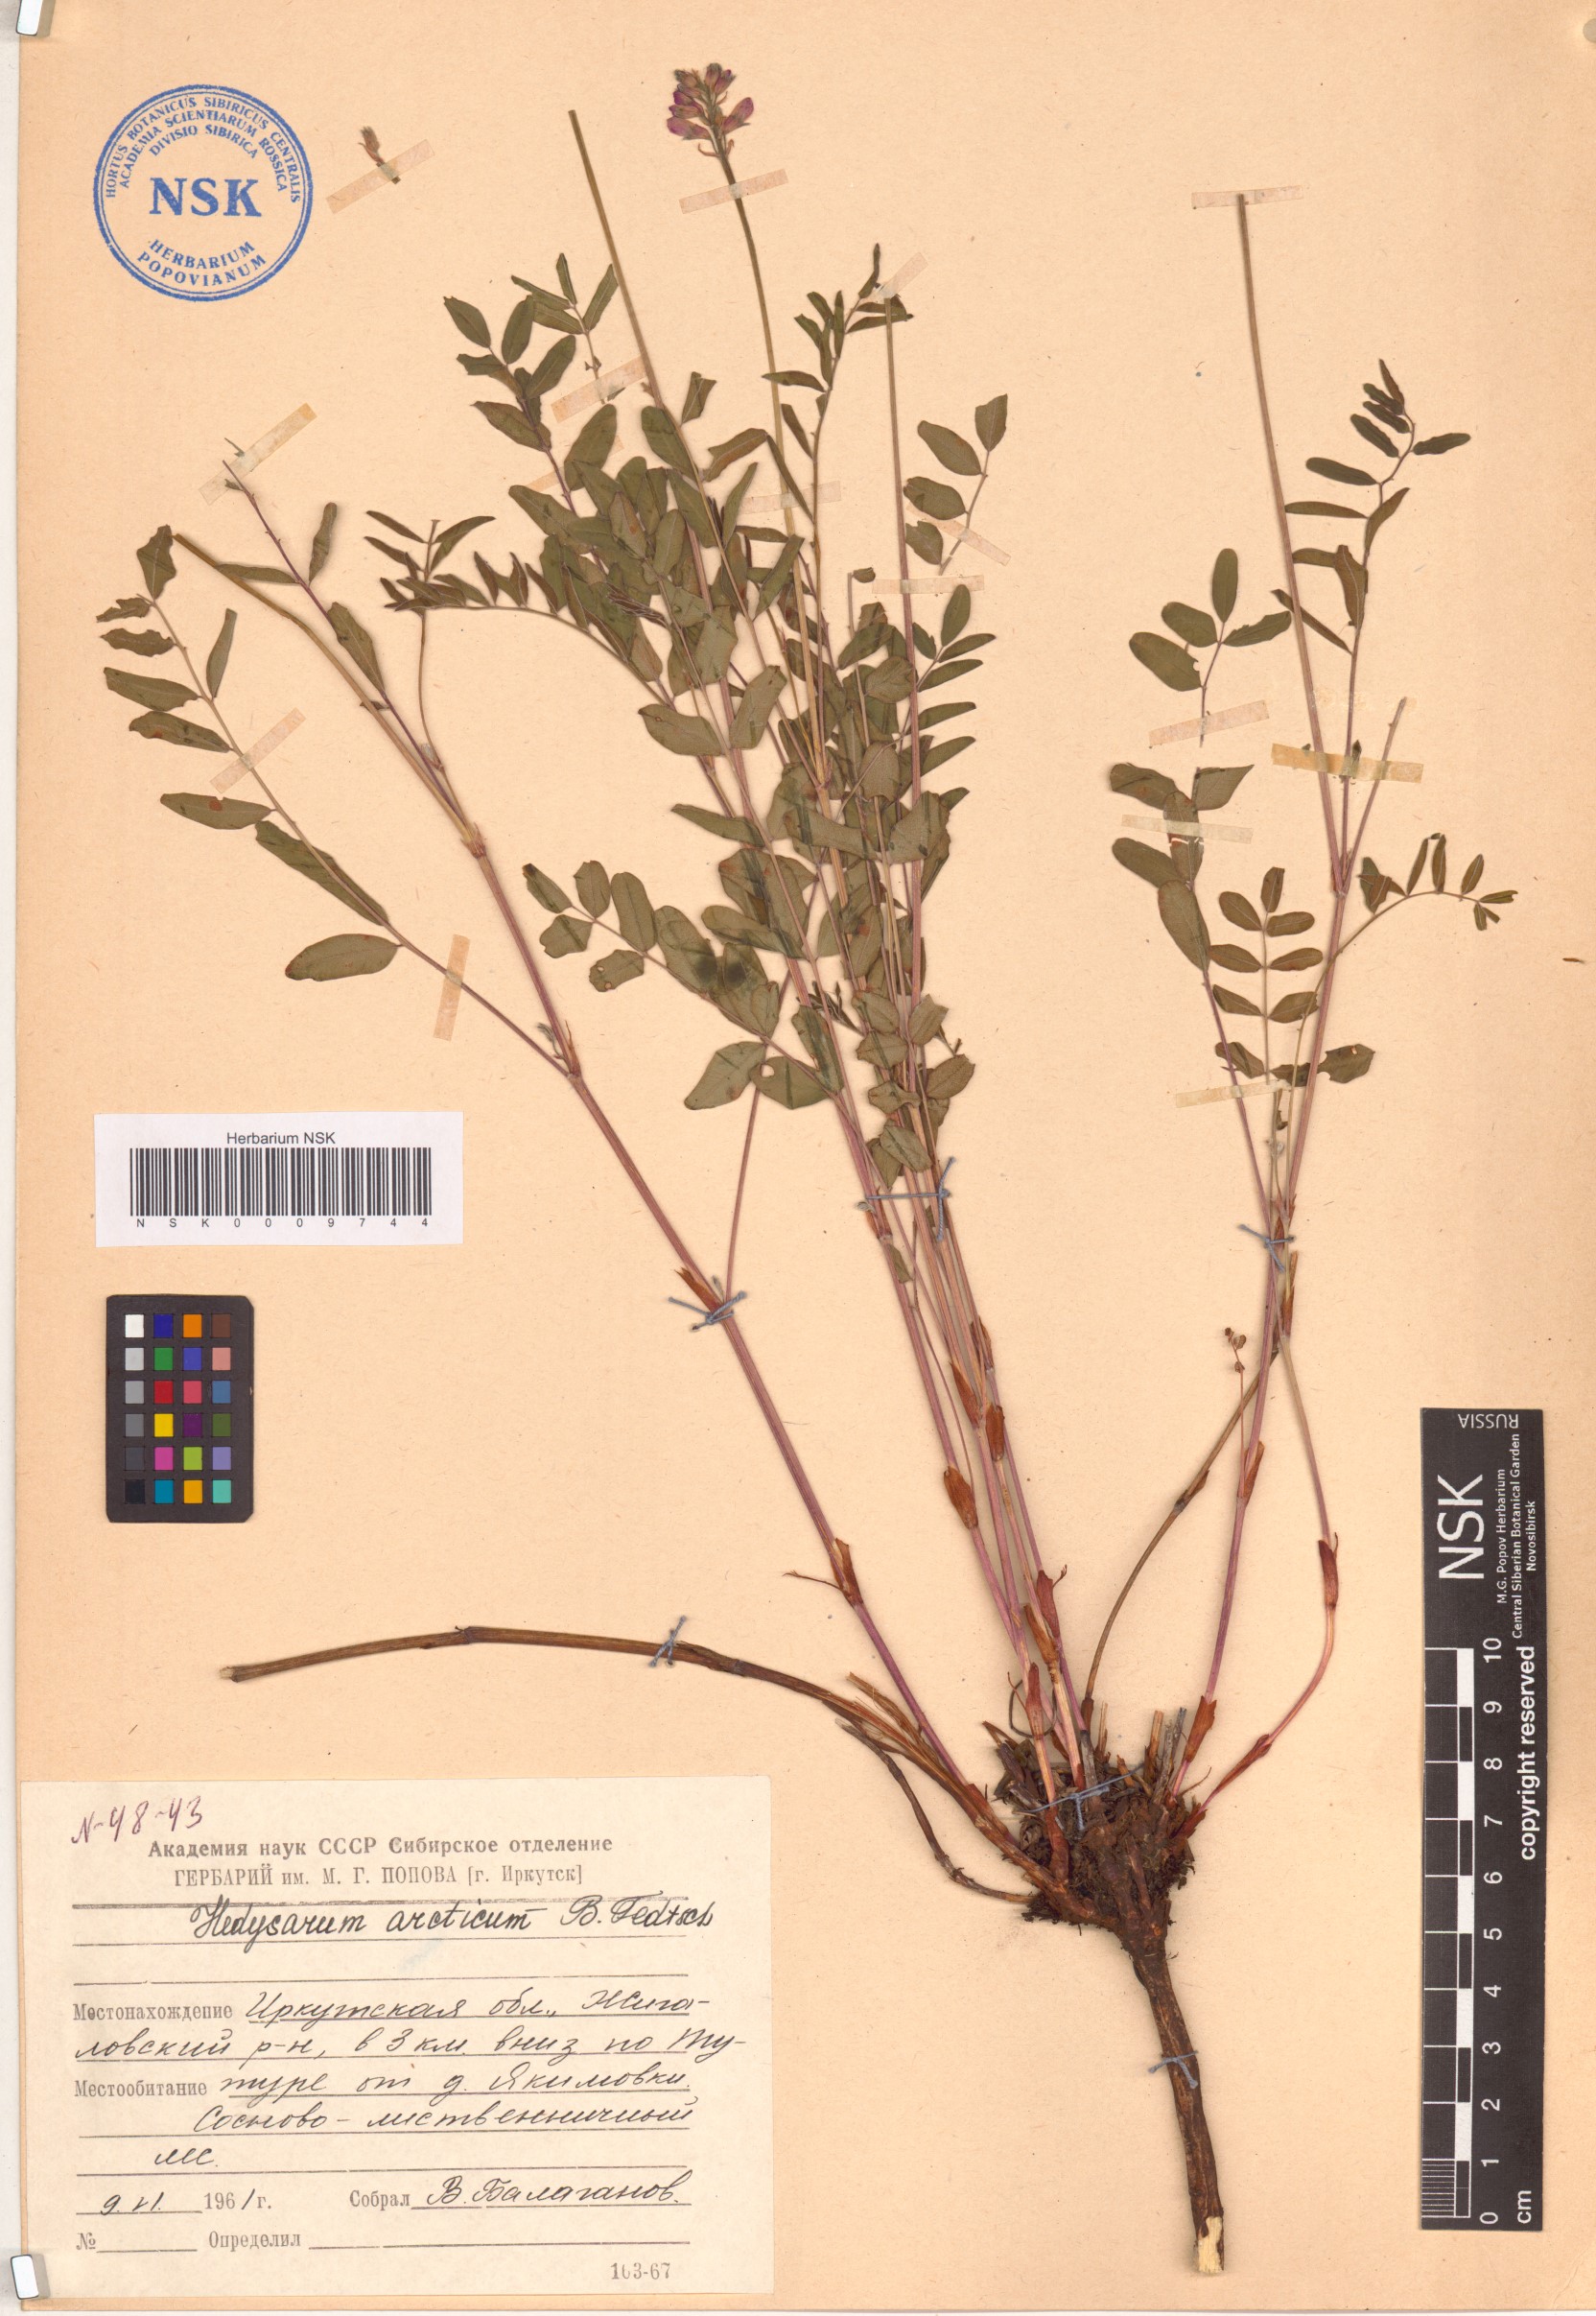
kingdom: Plantae
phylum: Tracheophyta
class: Magnoliopsida
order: Fabales
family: Fabaceae
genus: Hedysarum
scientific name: Hedysarum hedysaroides
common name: Alpine french-honeysuckle
